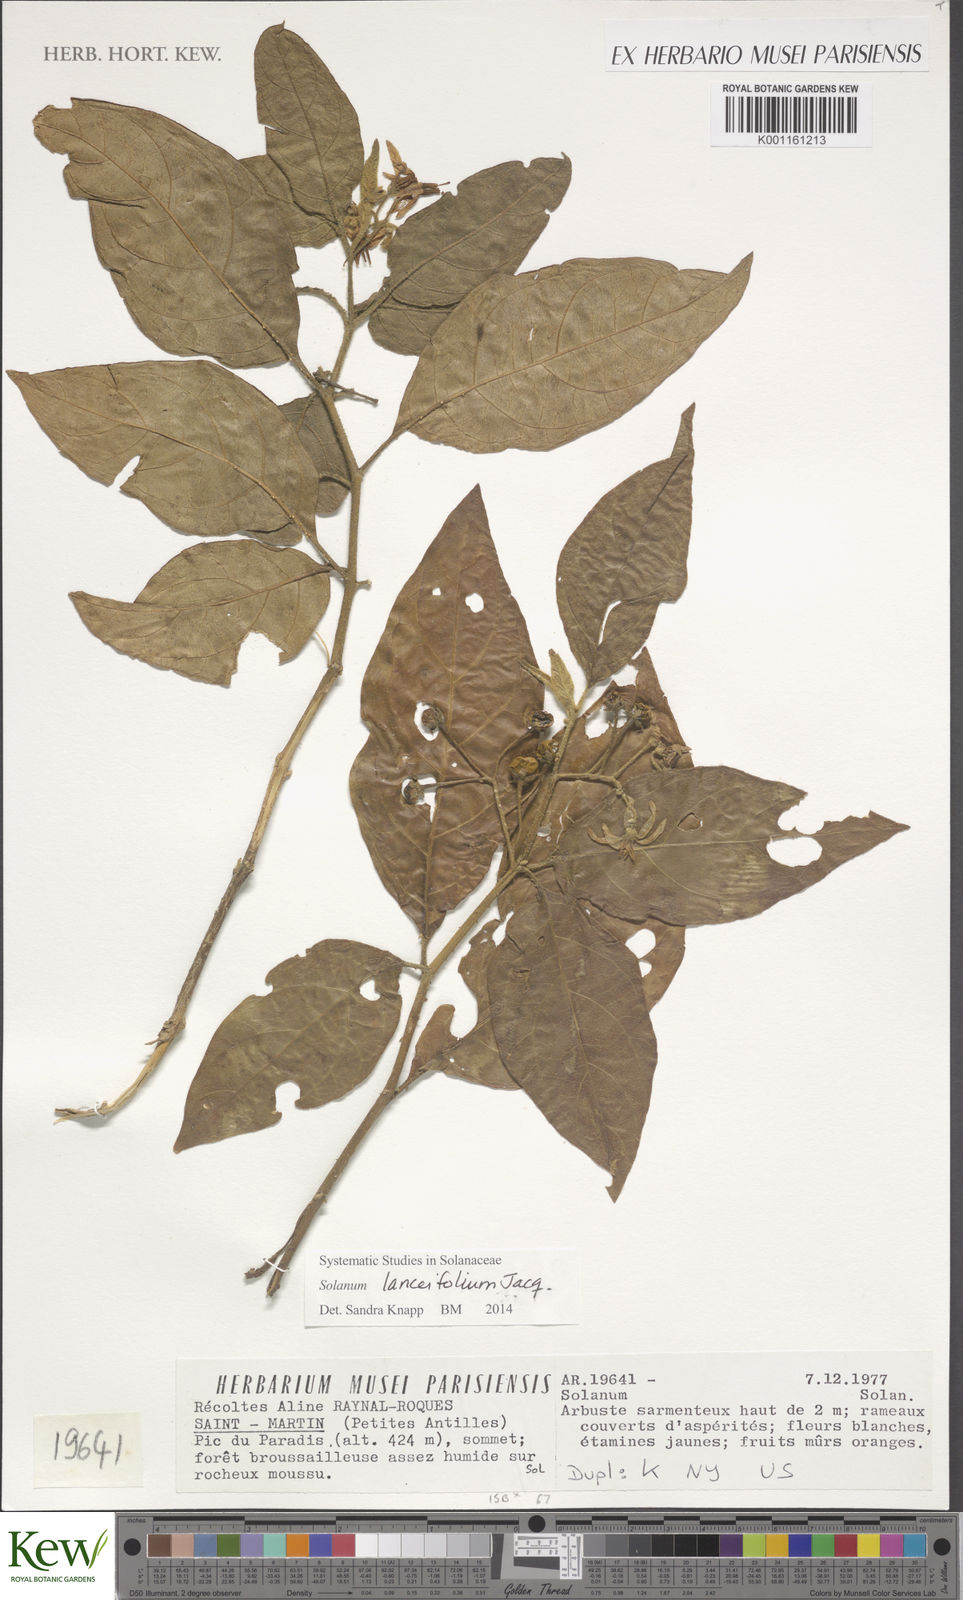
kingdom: Plantae
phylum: Tracheophyta
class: Magnoliopsida
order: Solanales
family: Solanaceae
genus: Solanum
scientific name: Solanum lanceifolium
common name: Lanceleaf nightshade
